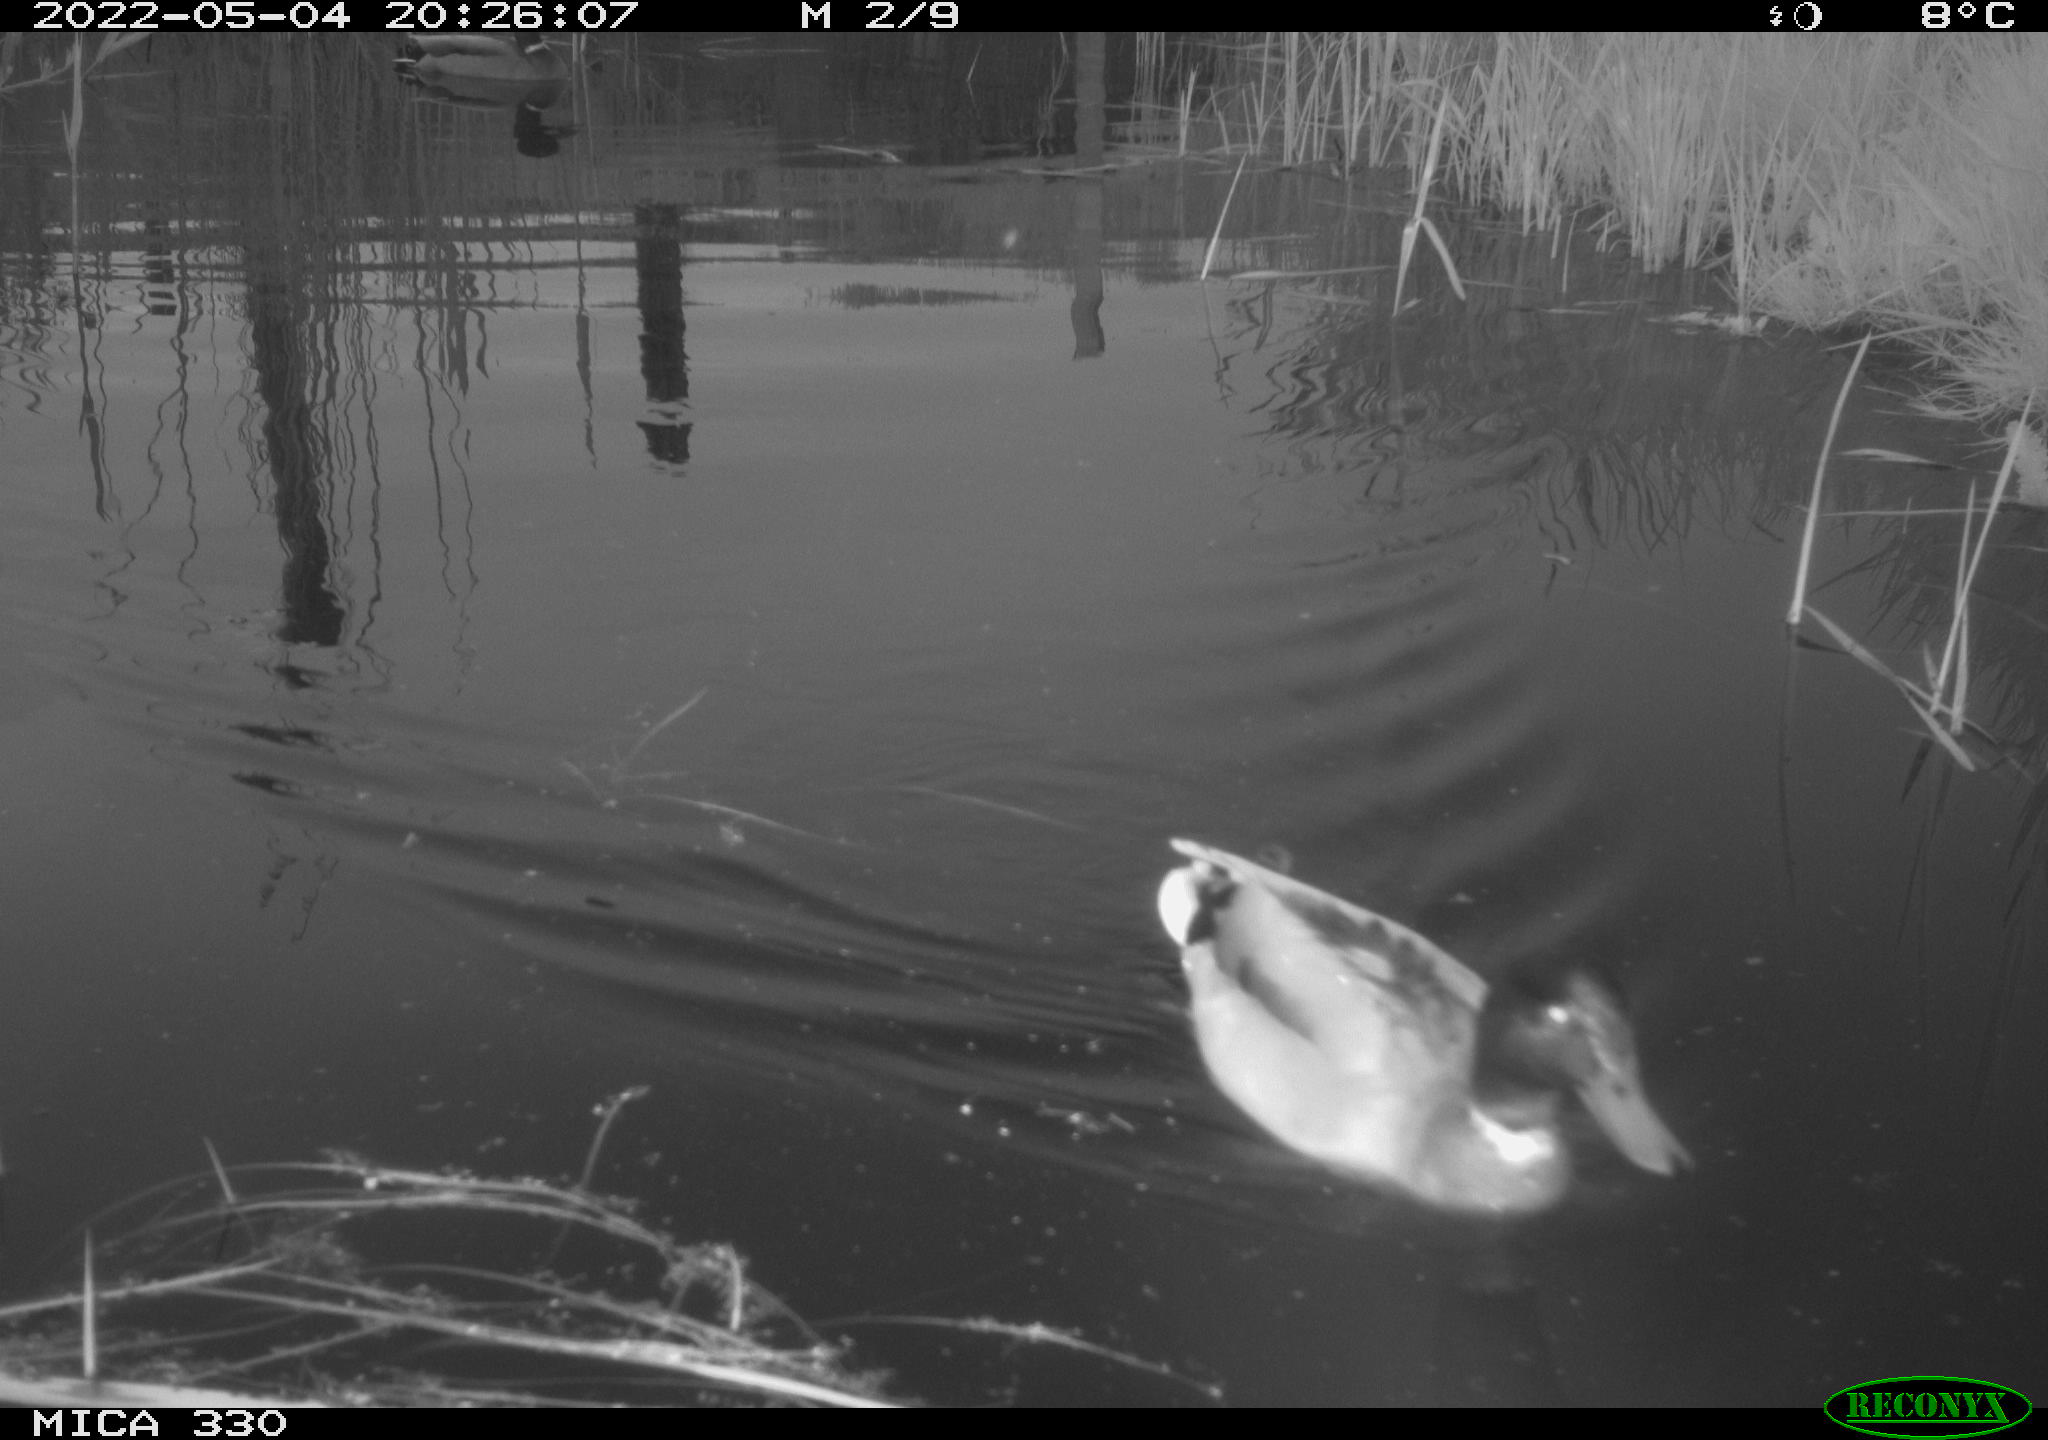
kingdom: Animalia
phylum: Chordata
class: Aves
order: Anseriformes
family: Anatidae
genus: Anas
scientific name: Anas platyrhynchos
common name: Mallard
